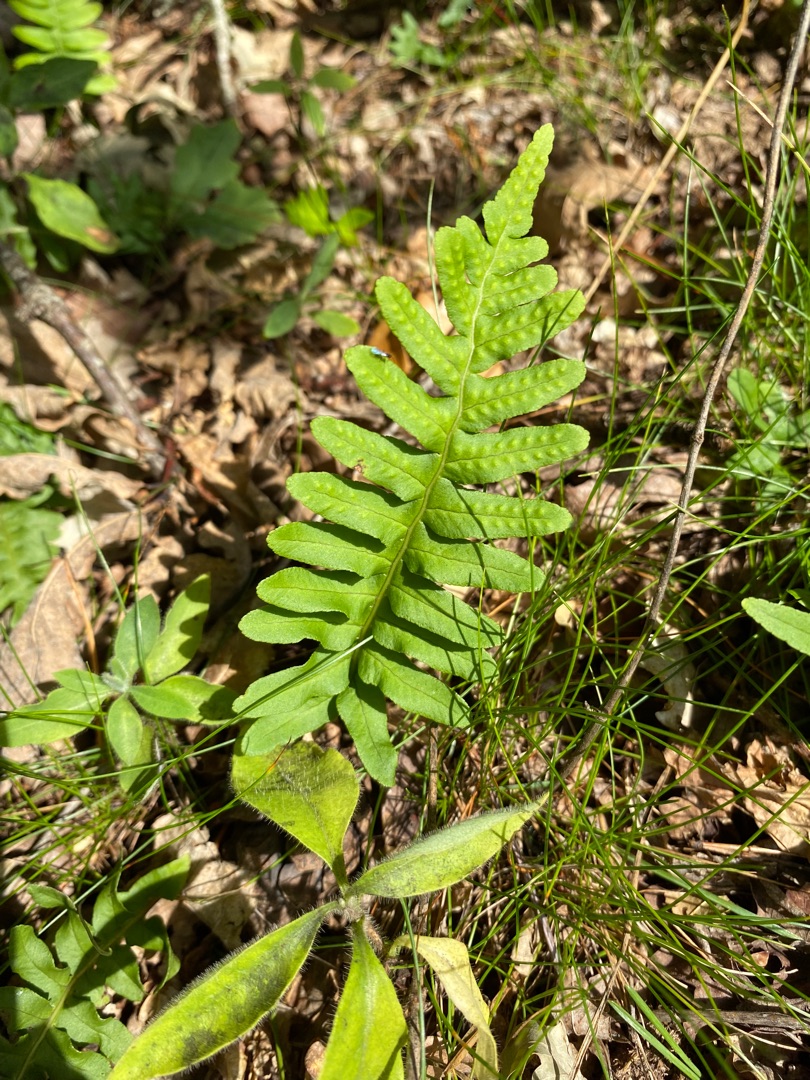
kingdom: Plantae
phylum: Tracheophyta
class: Polypodiopsida
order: Polypodiales
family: Polypodiaceae
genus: Polypodium
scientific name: Polypodium vulgare
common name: Almindelig engelsød
